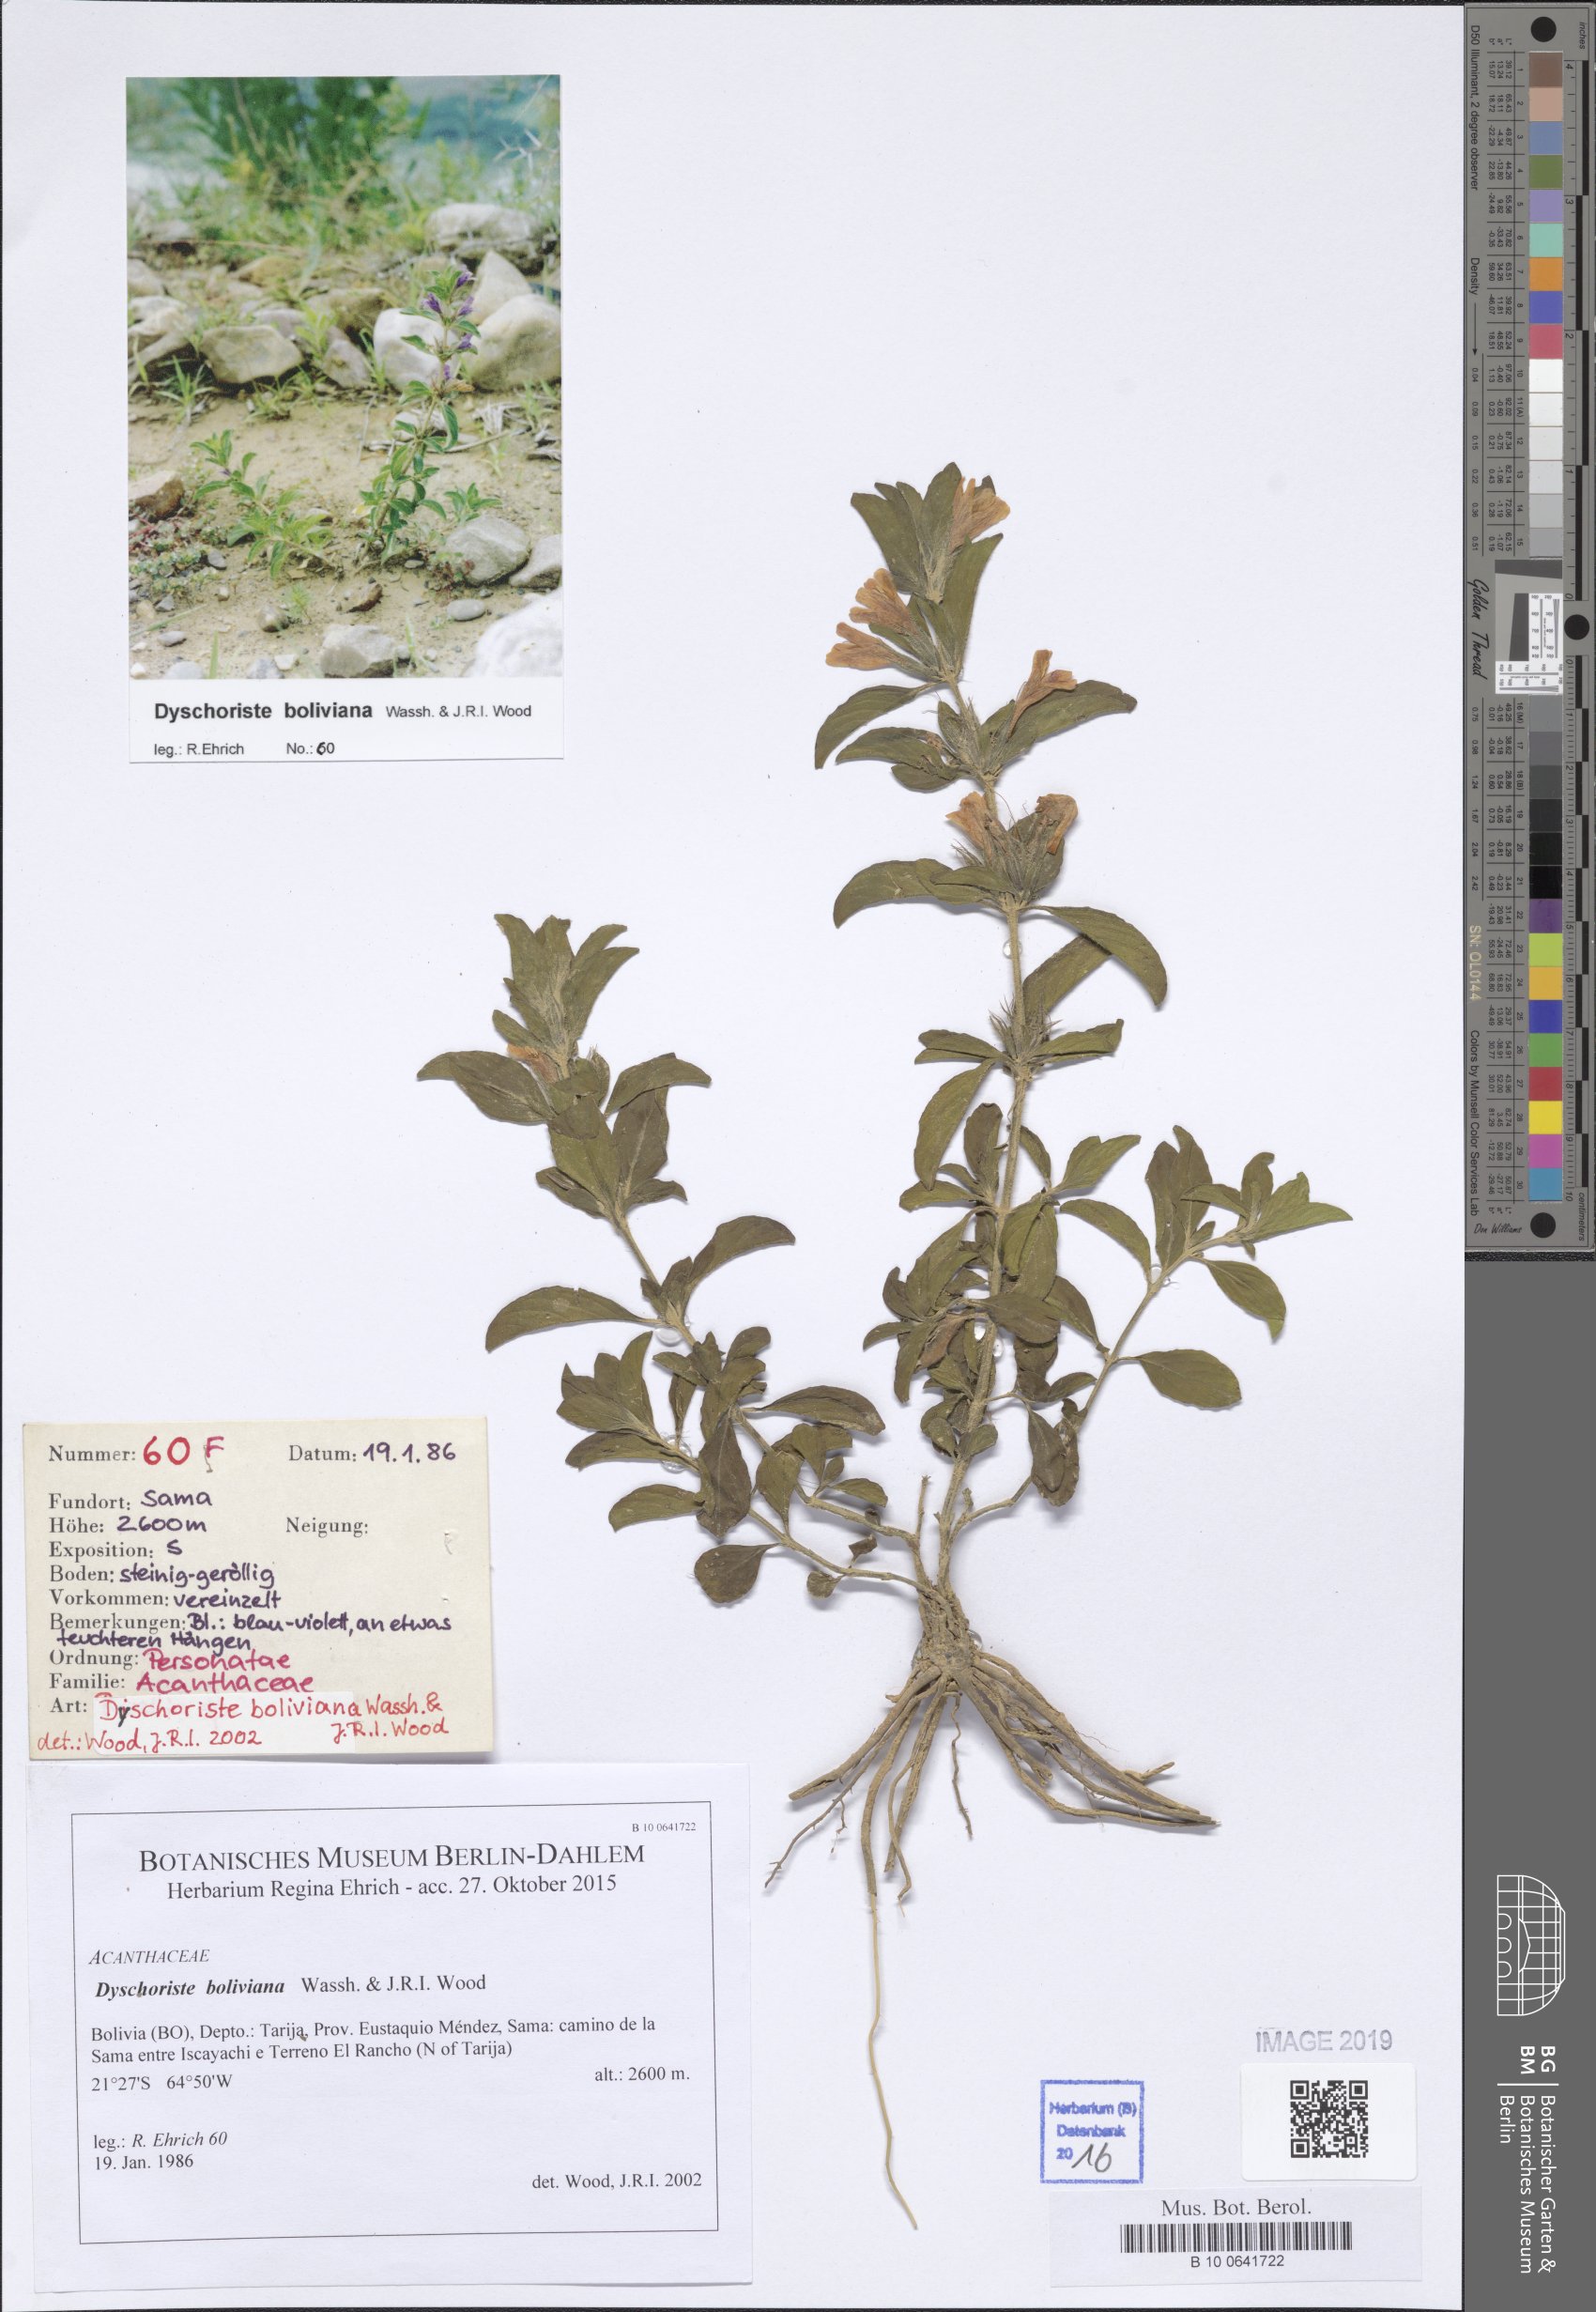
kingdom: Plantae
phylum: Tracheophyta
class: Magnoliopsida
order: Lamiales
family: Acanthaceae
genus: Dyschoriste
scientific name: Dyschoriste boliviana
